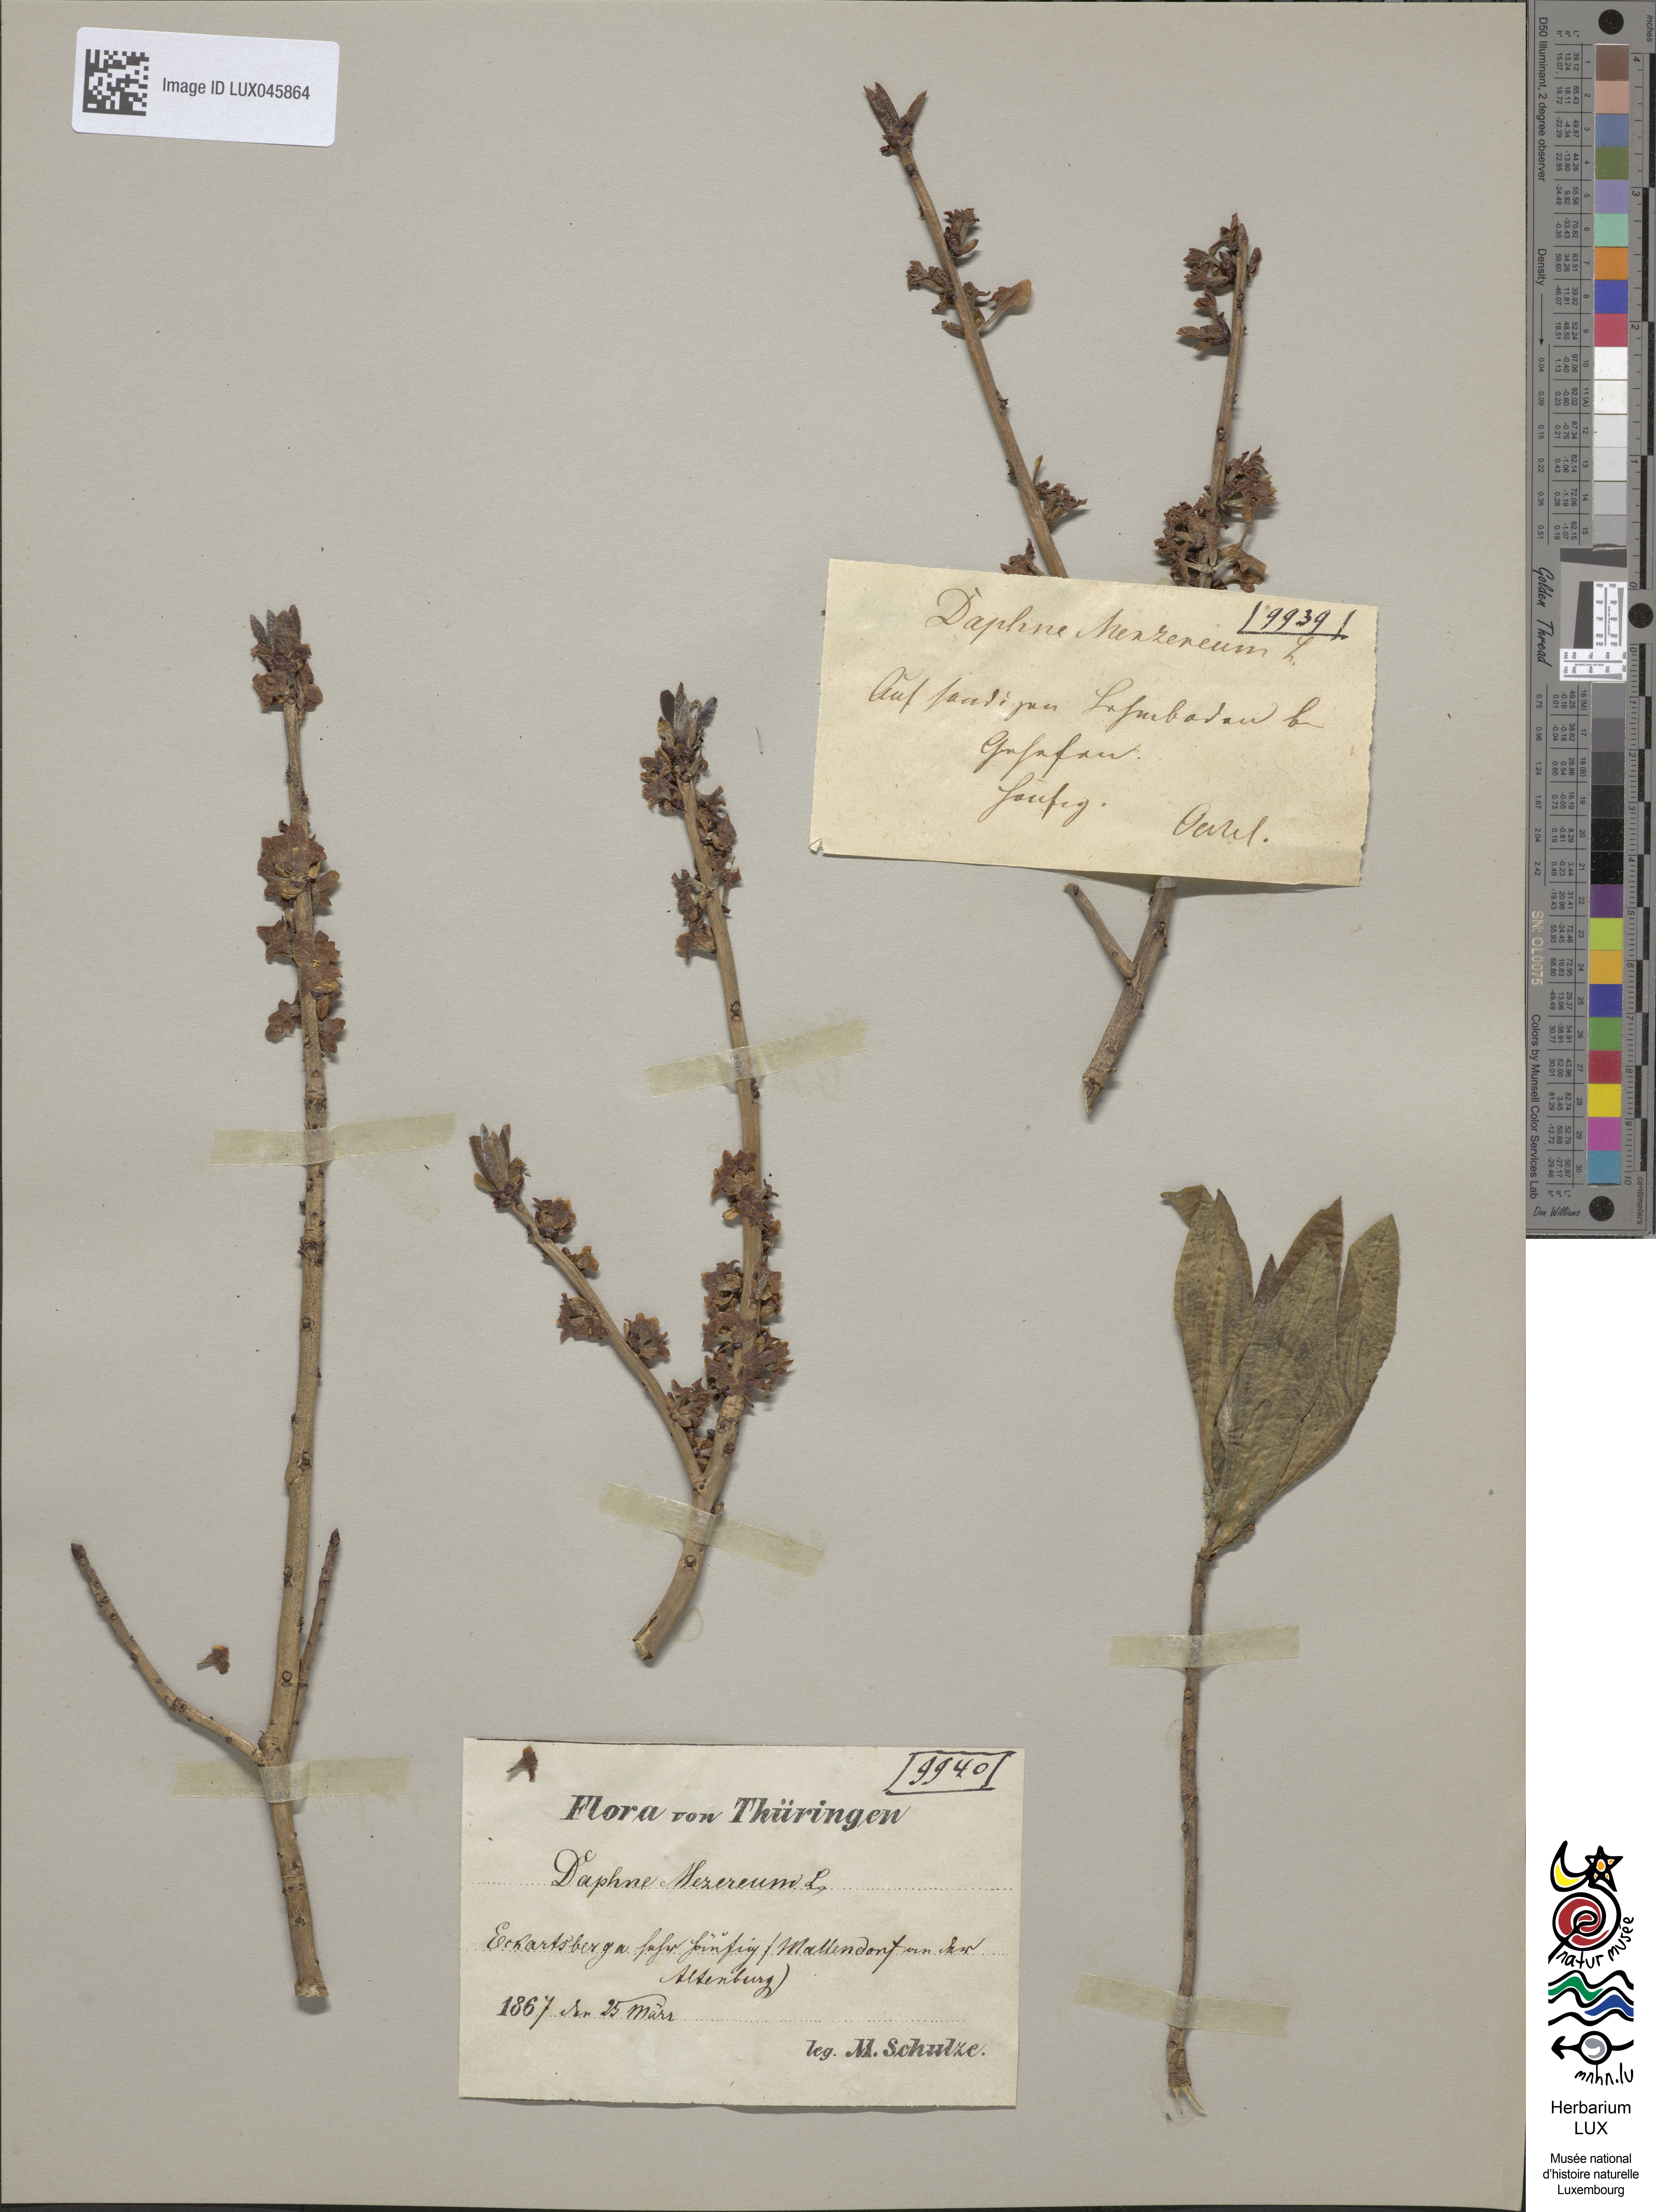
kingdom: Plantae
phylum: Tracheophyta
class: Magnoliopsida
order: Malvales
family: Thymelaeaceae
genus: Daphne
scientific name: Daphne mezereum
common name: Mezereon
